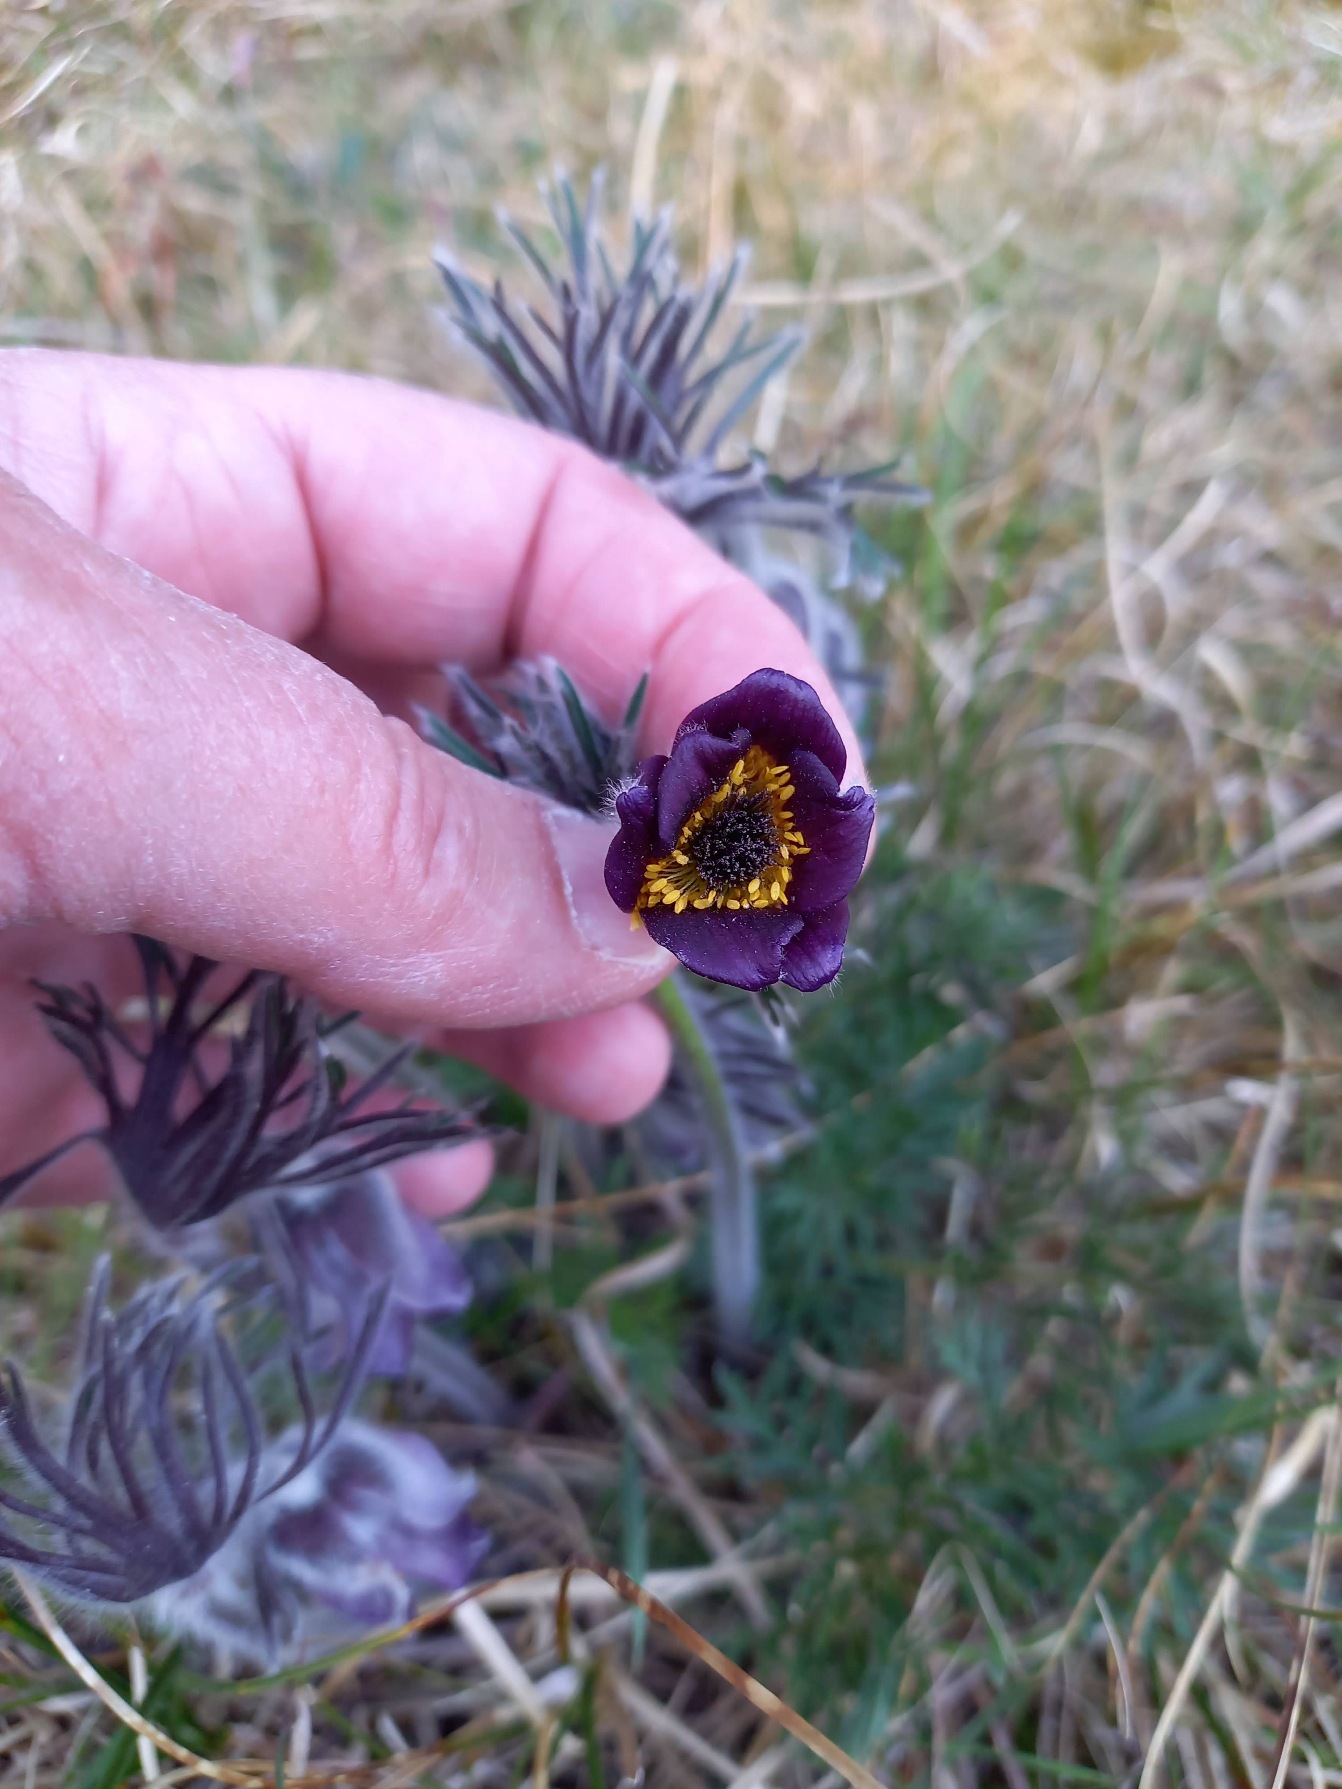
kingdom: Plantae
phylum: Tracheophyta
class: Magnoliopsida
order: Ranunculales
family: Ranunculaceae
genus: Pulsatilla
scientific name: Pulsatilla pratensis
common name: Nikkende kobjælde
